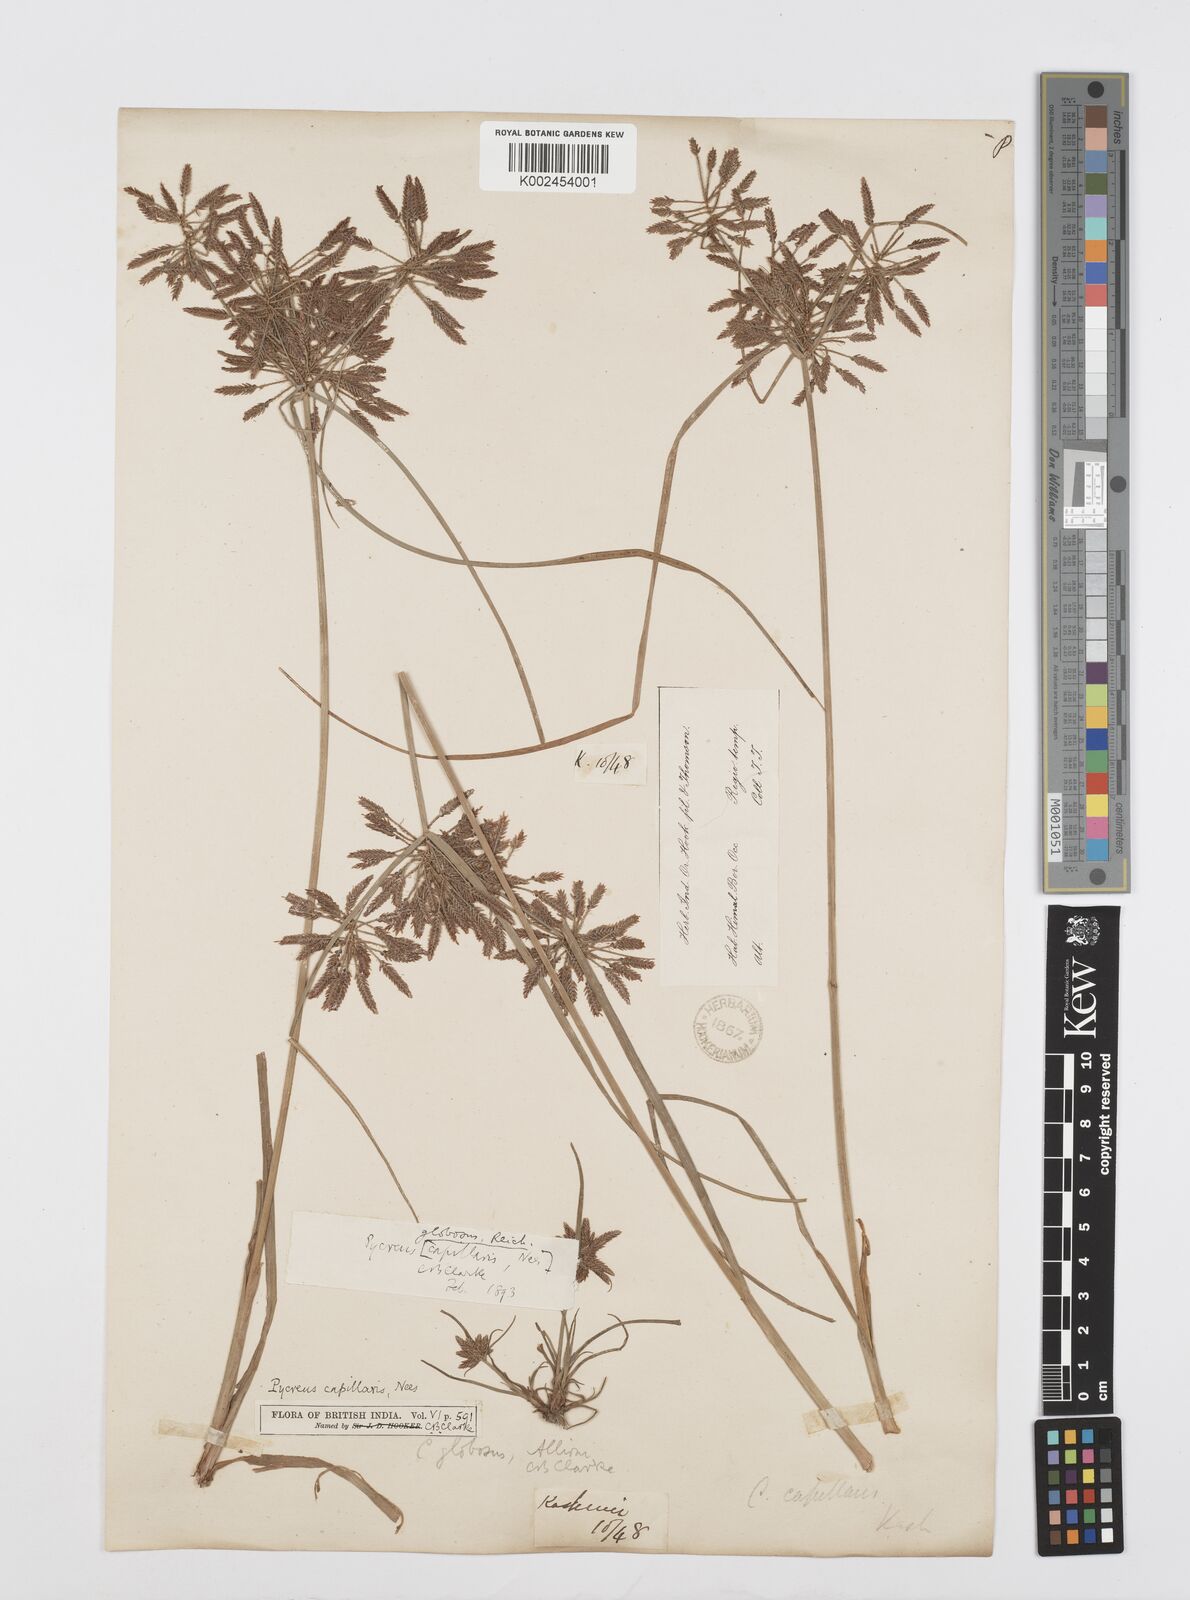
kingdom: Plantae
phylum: Tracheophyta
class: Liliopsida
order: Poales
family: Cyperaceae
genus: Cyperus
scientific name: Cyperus flavidus
